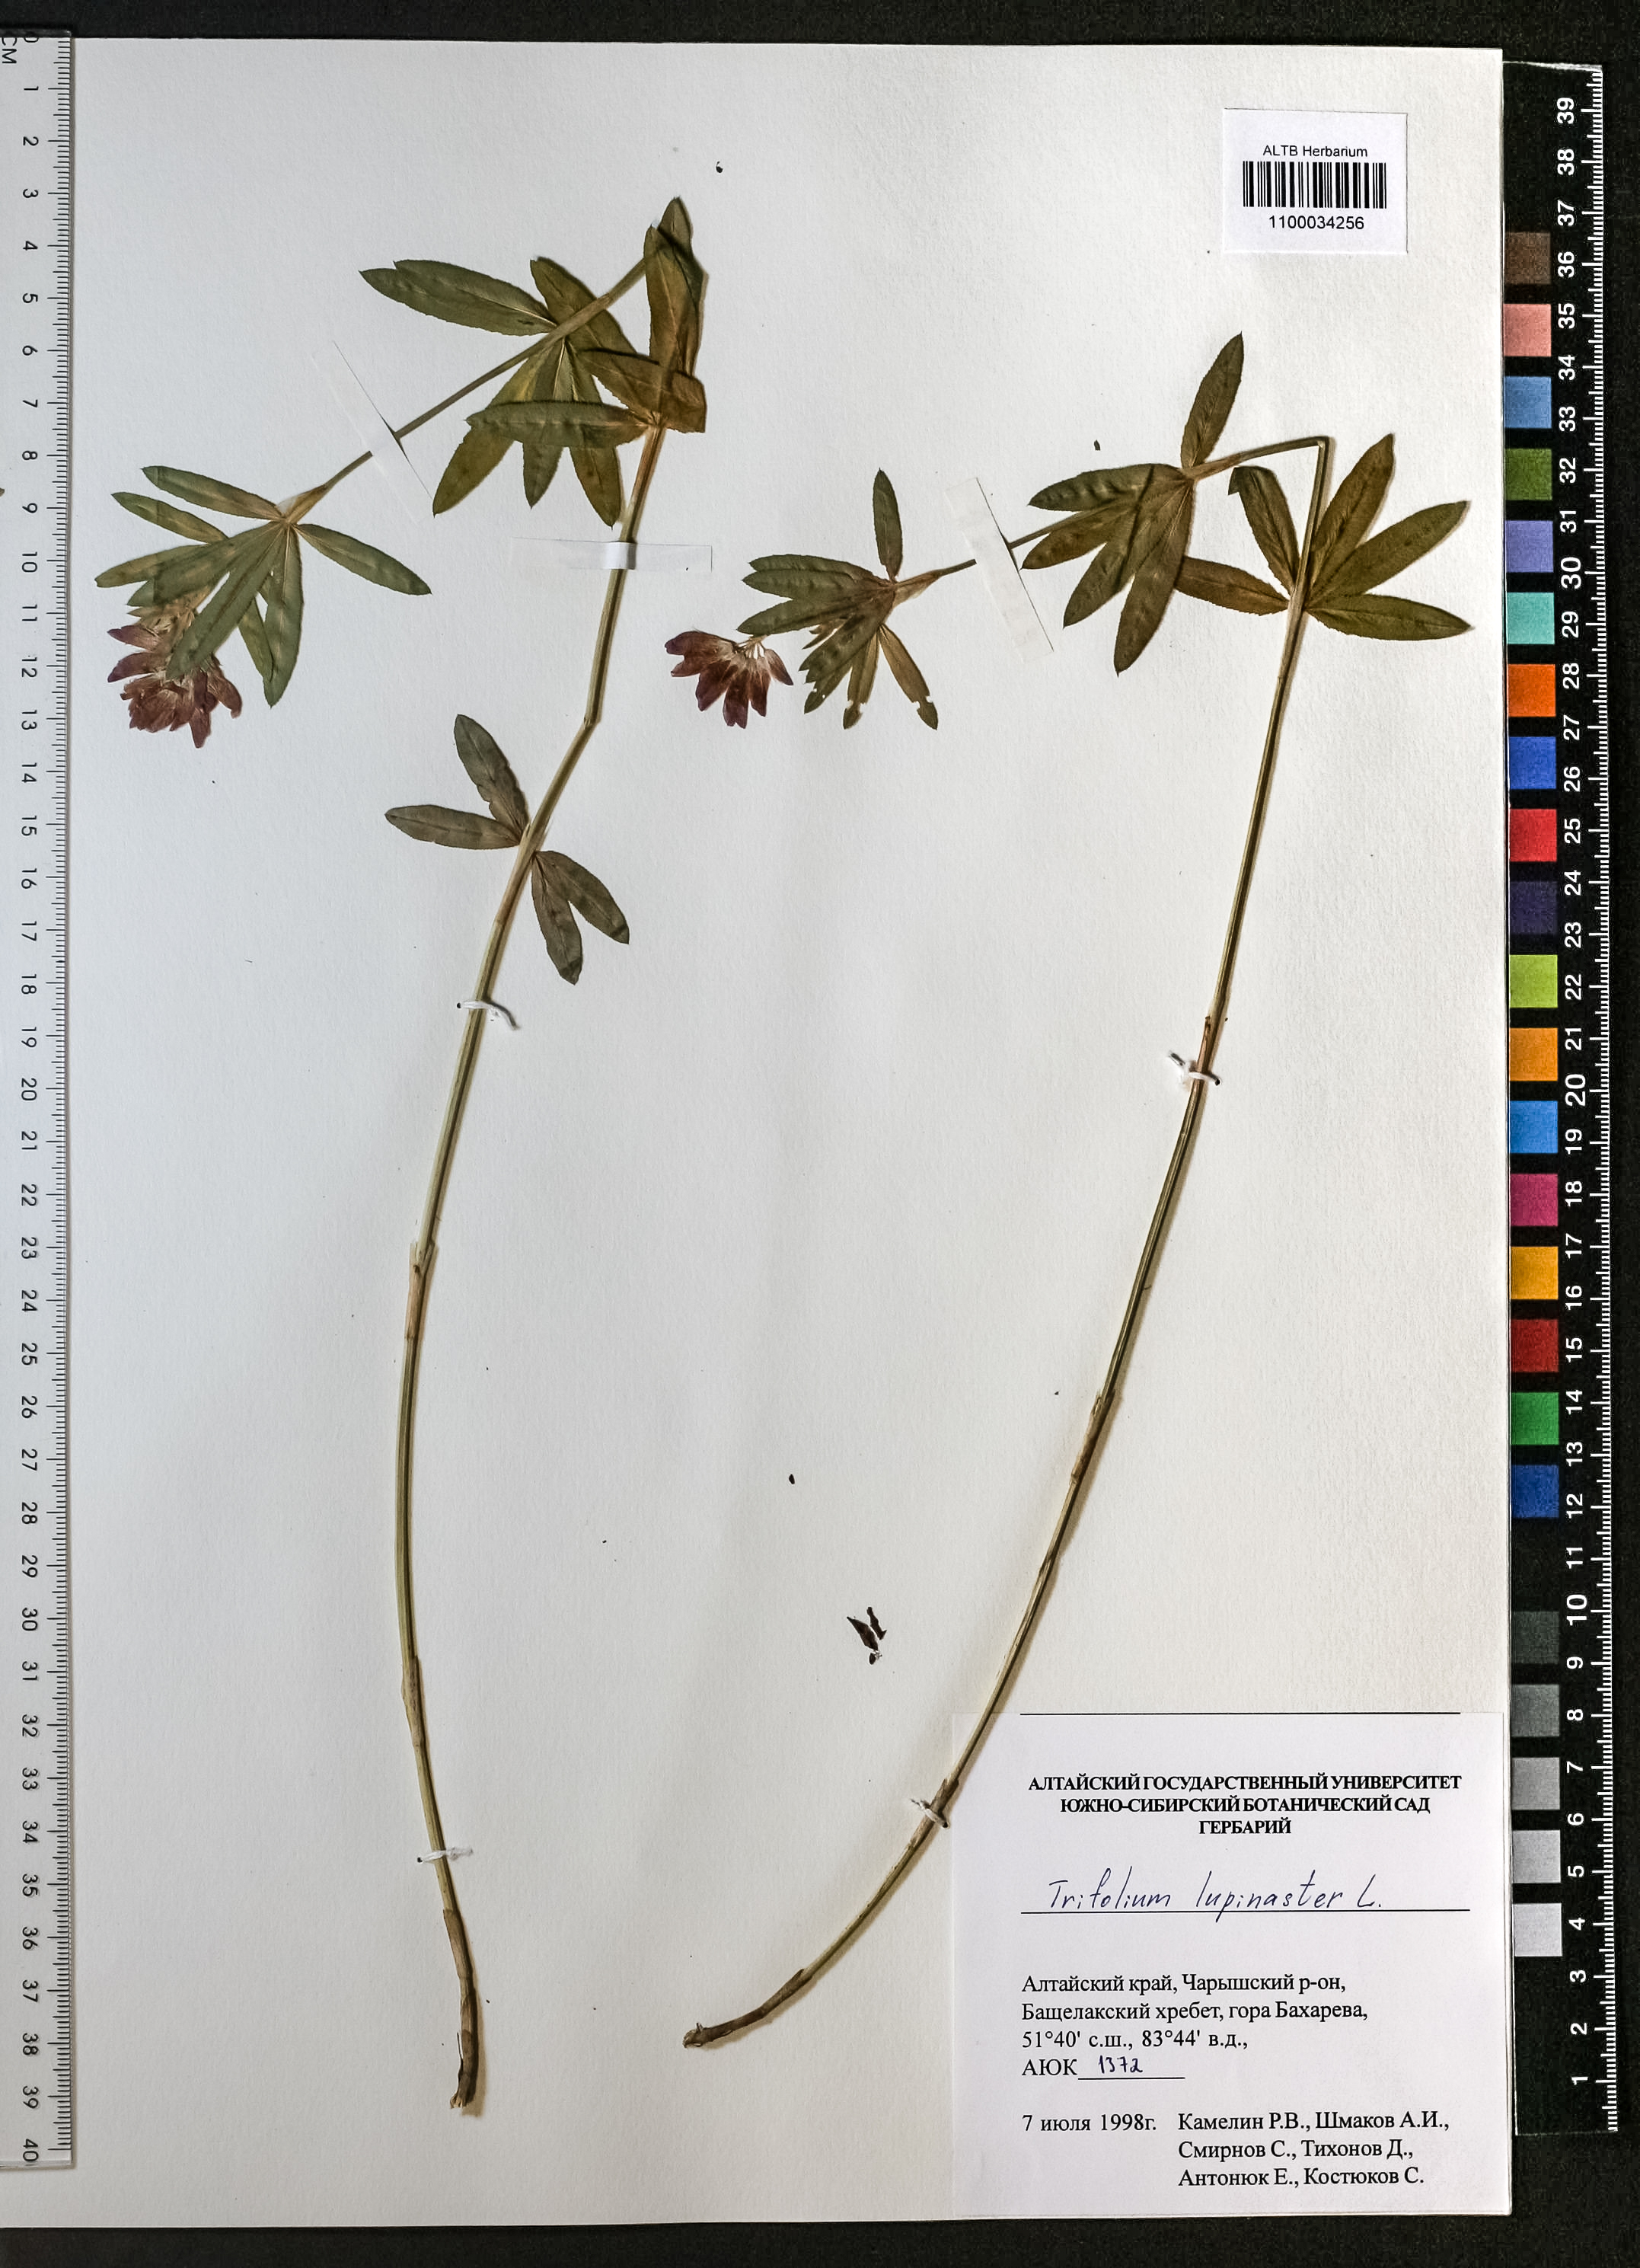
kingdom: Plantae
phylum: Tracheophyta
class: Magnoliopsida
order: Fabales
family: Fabaceae
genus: Trifolium
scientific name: Trifolium lupinaster
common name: Lupine clover
